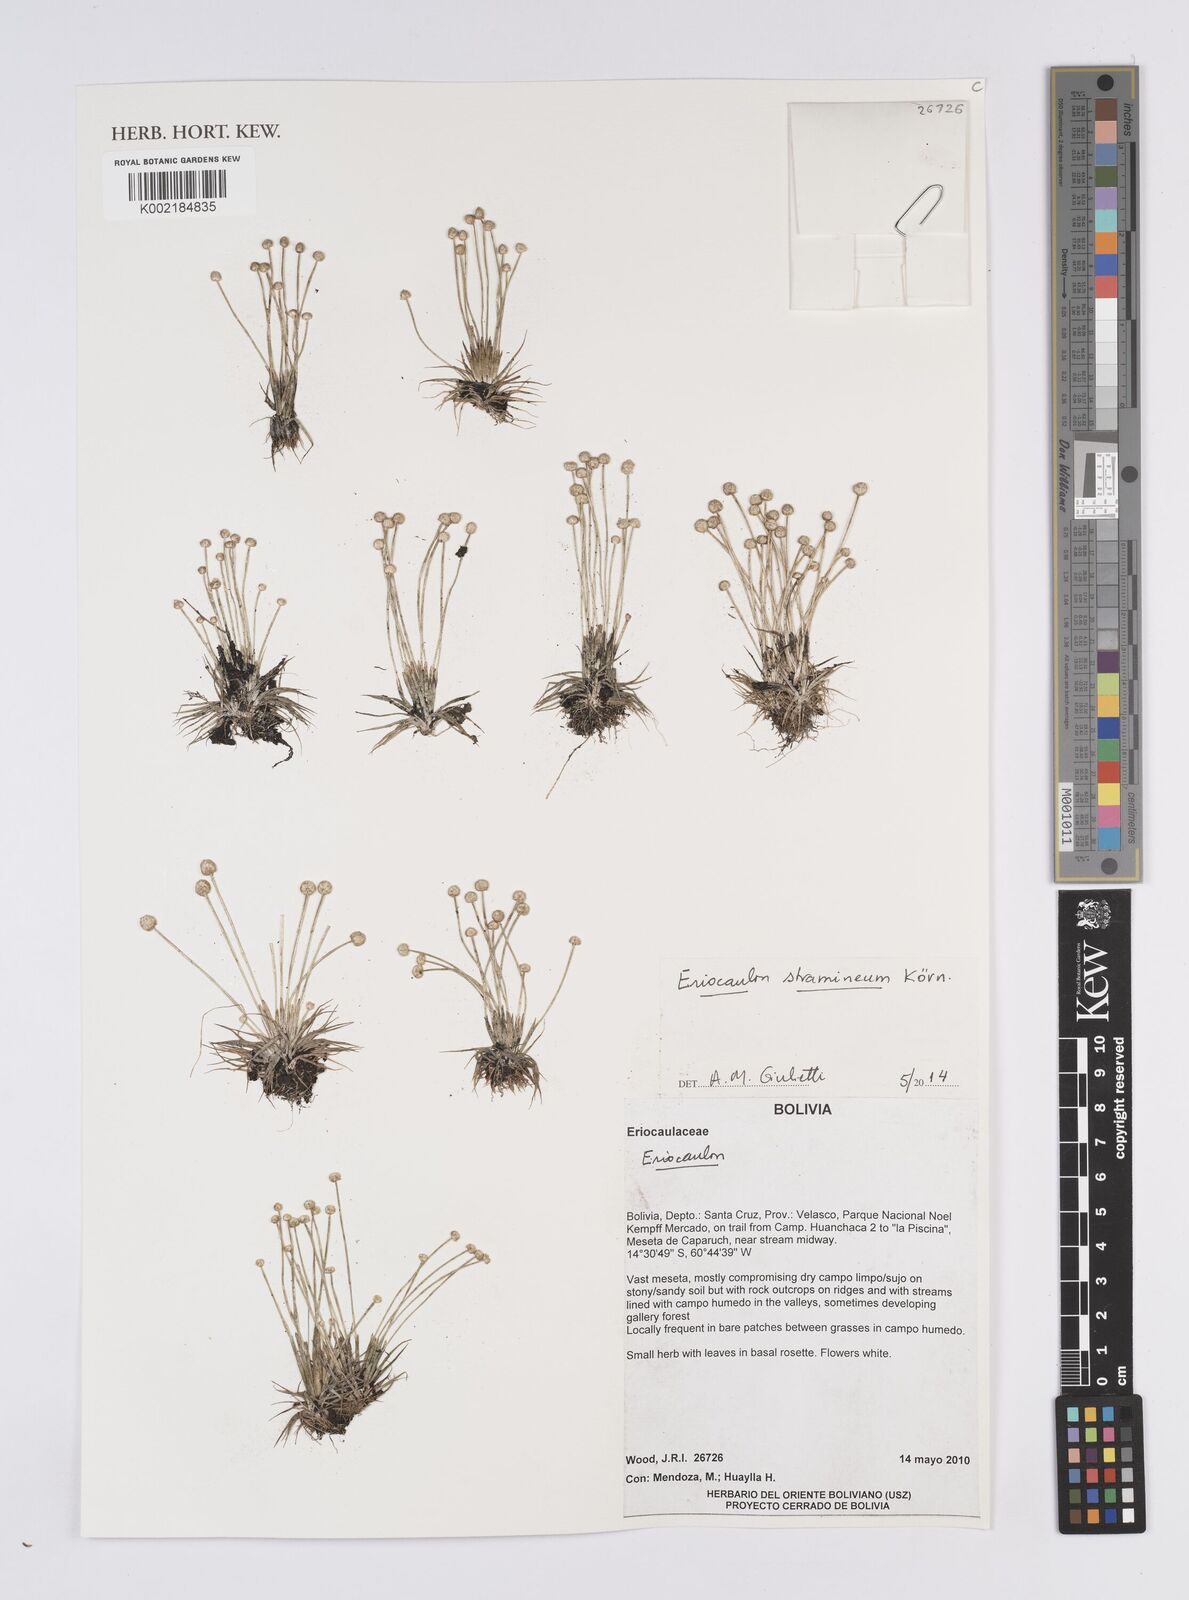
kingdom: Plantae
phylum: Tracheophyta
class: Liliopsida
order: Poales
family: Eriocaulaceae
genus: Eriocaulon
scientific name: Eriocaulon guyanense
